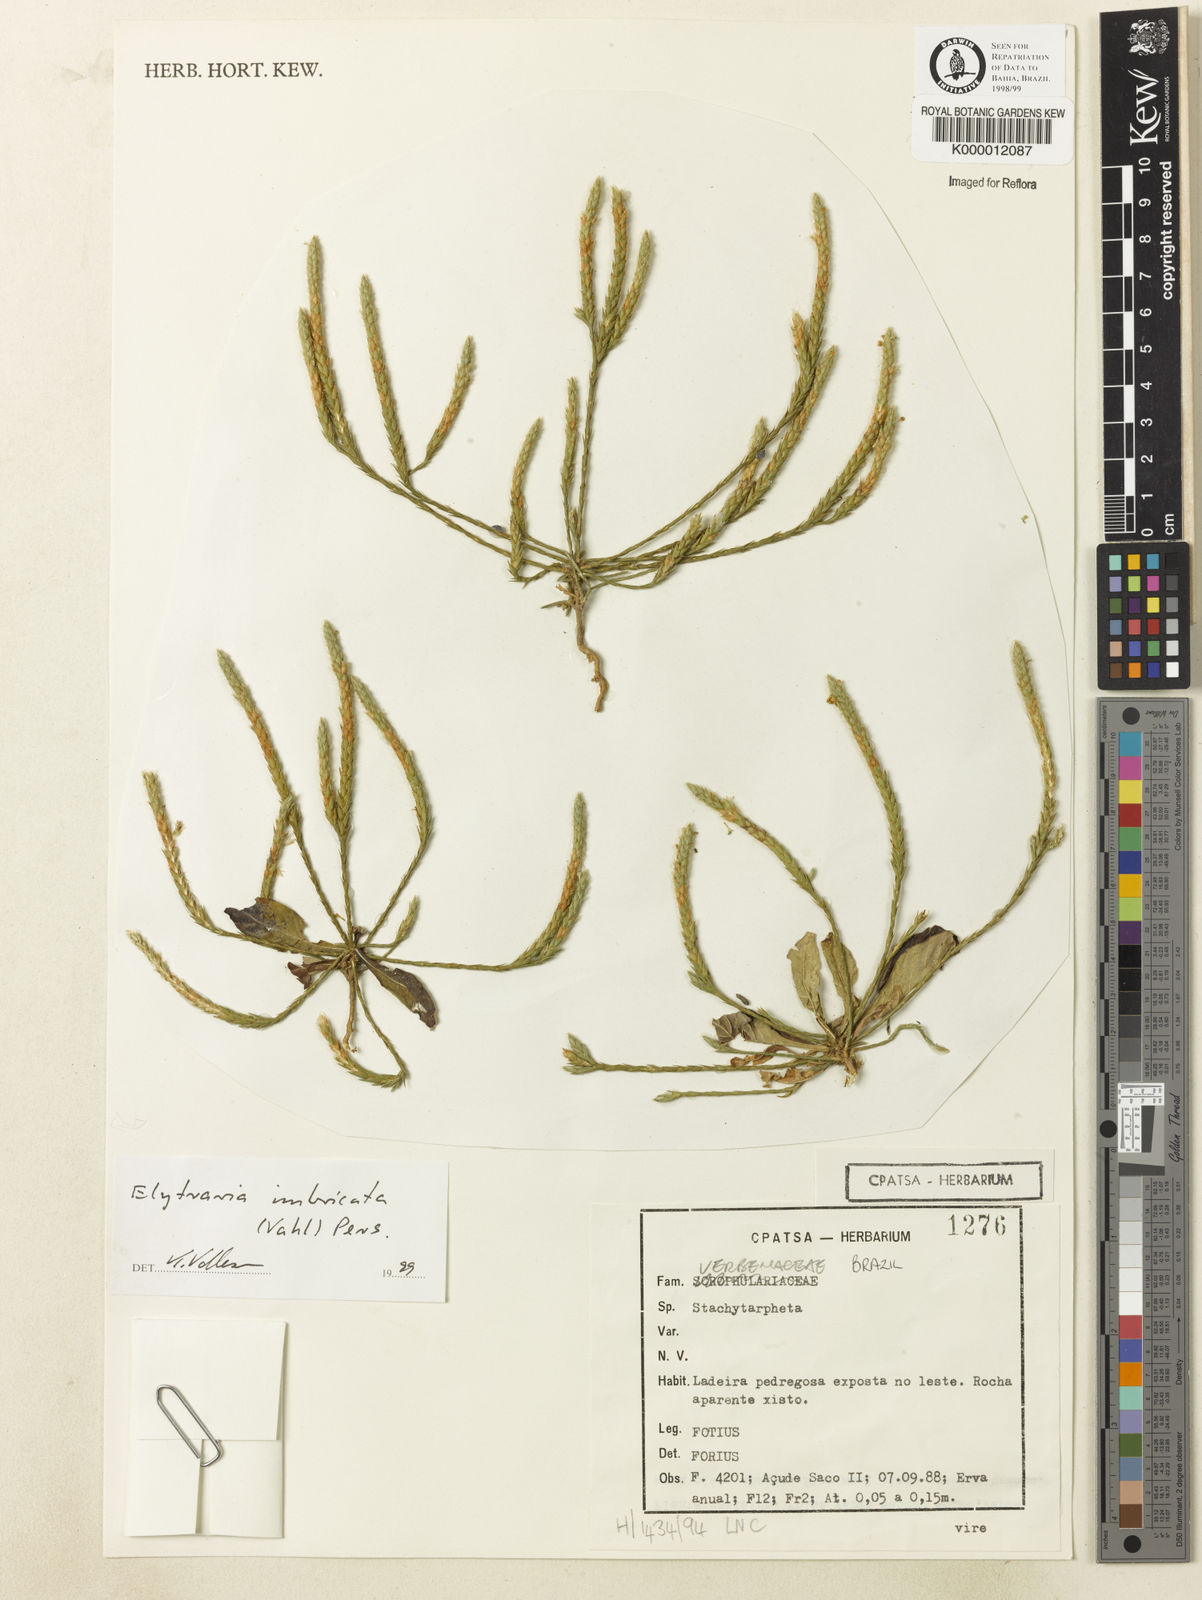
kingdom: Plantae
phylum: Tracheophyta
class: Magnoliopsida
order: Lamiales
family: Acanthaceae
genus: Elytraria
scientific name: Elytraria imbricata
